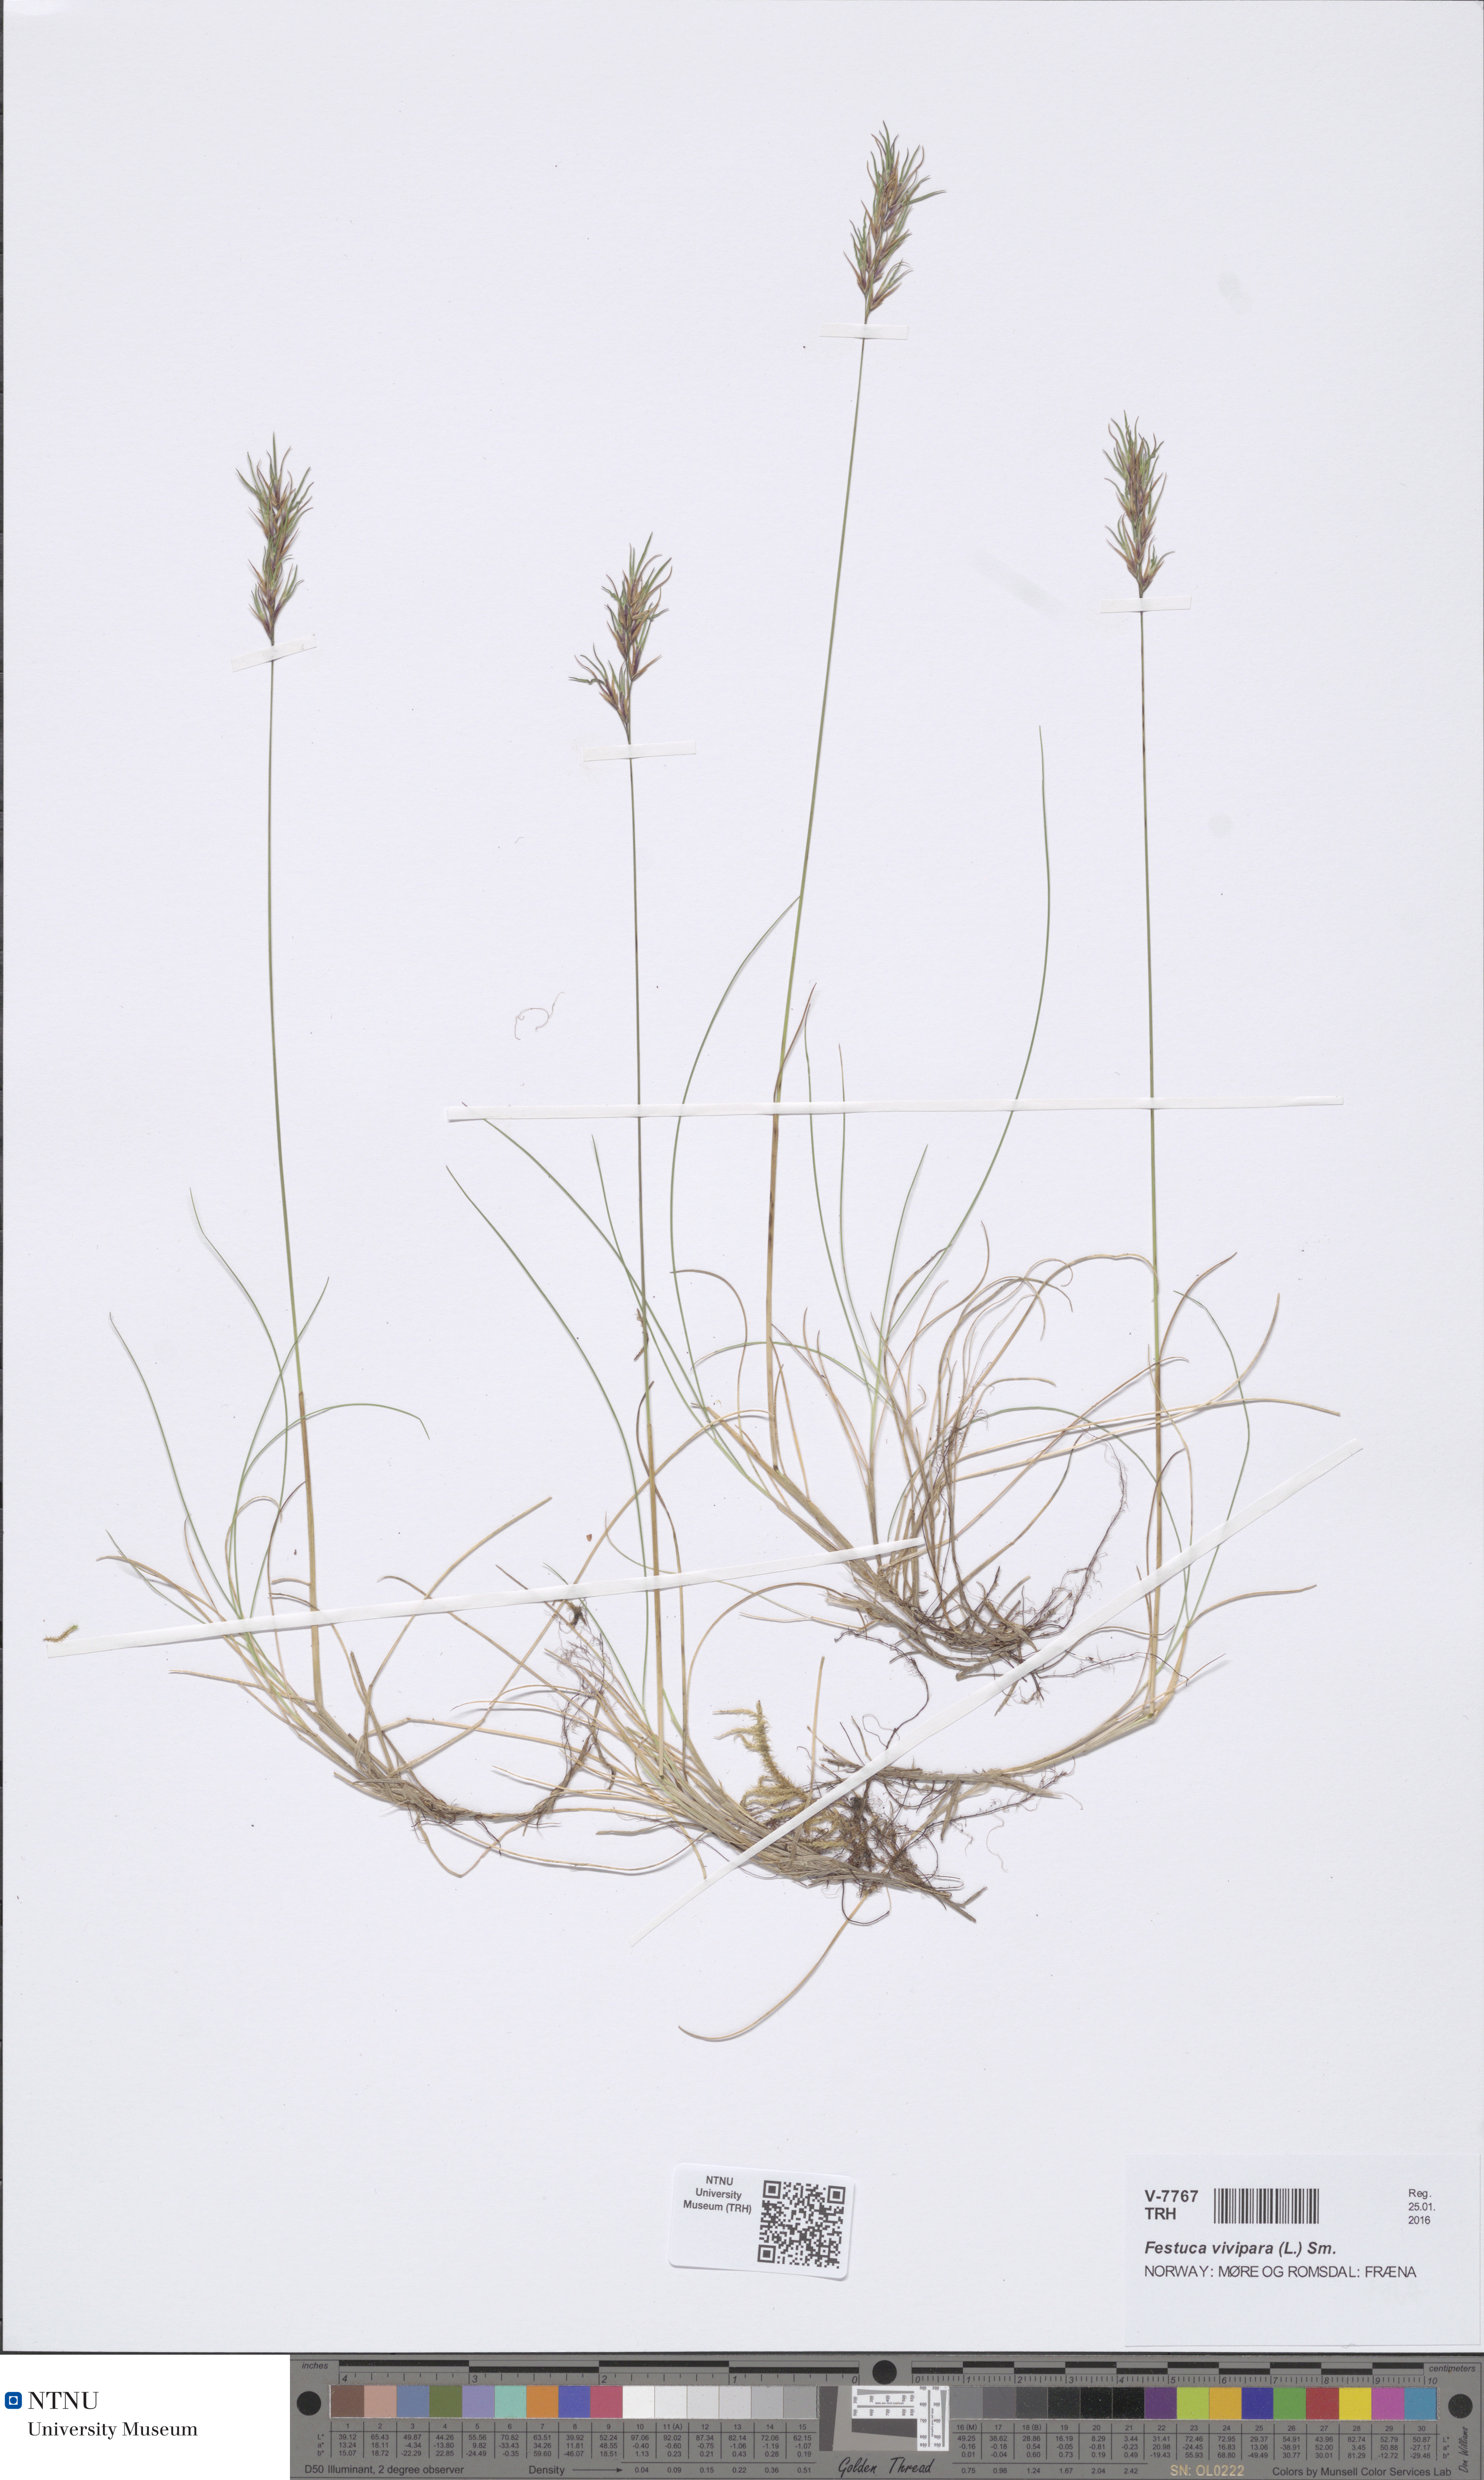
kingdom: Plantae
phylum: Tracheophyta
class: Liliopsida
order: Poales
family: Poaceae
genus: Festuca
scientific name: Festuca vivipara
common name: Viviparous sheep's-fescue
